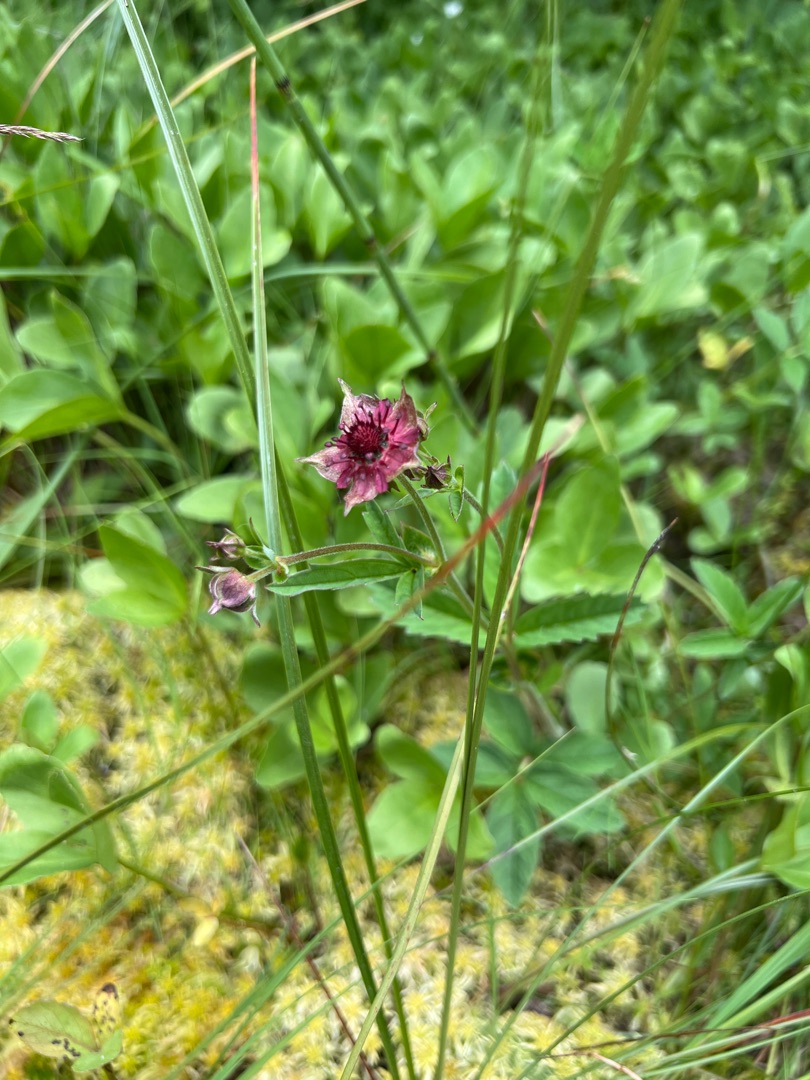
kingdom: Plantae
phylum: Tracheophyta
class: Magnoliopsida
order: Rosales
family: Rosaceae
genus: Comarum
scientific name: Comarum palustre
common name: Kragefod
